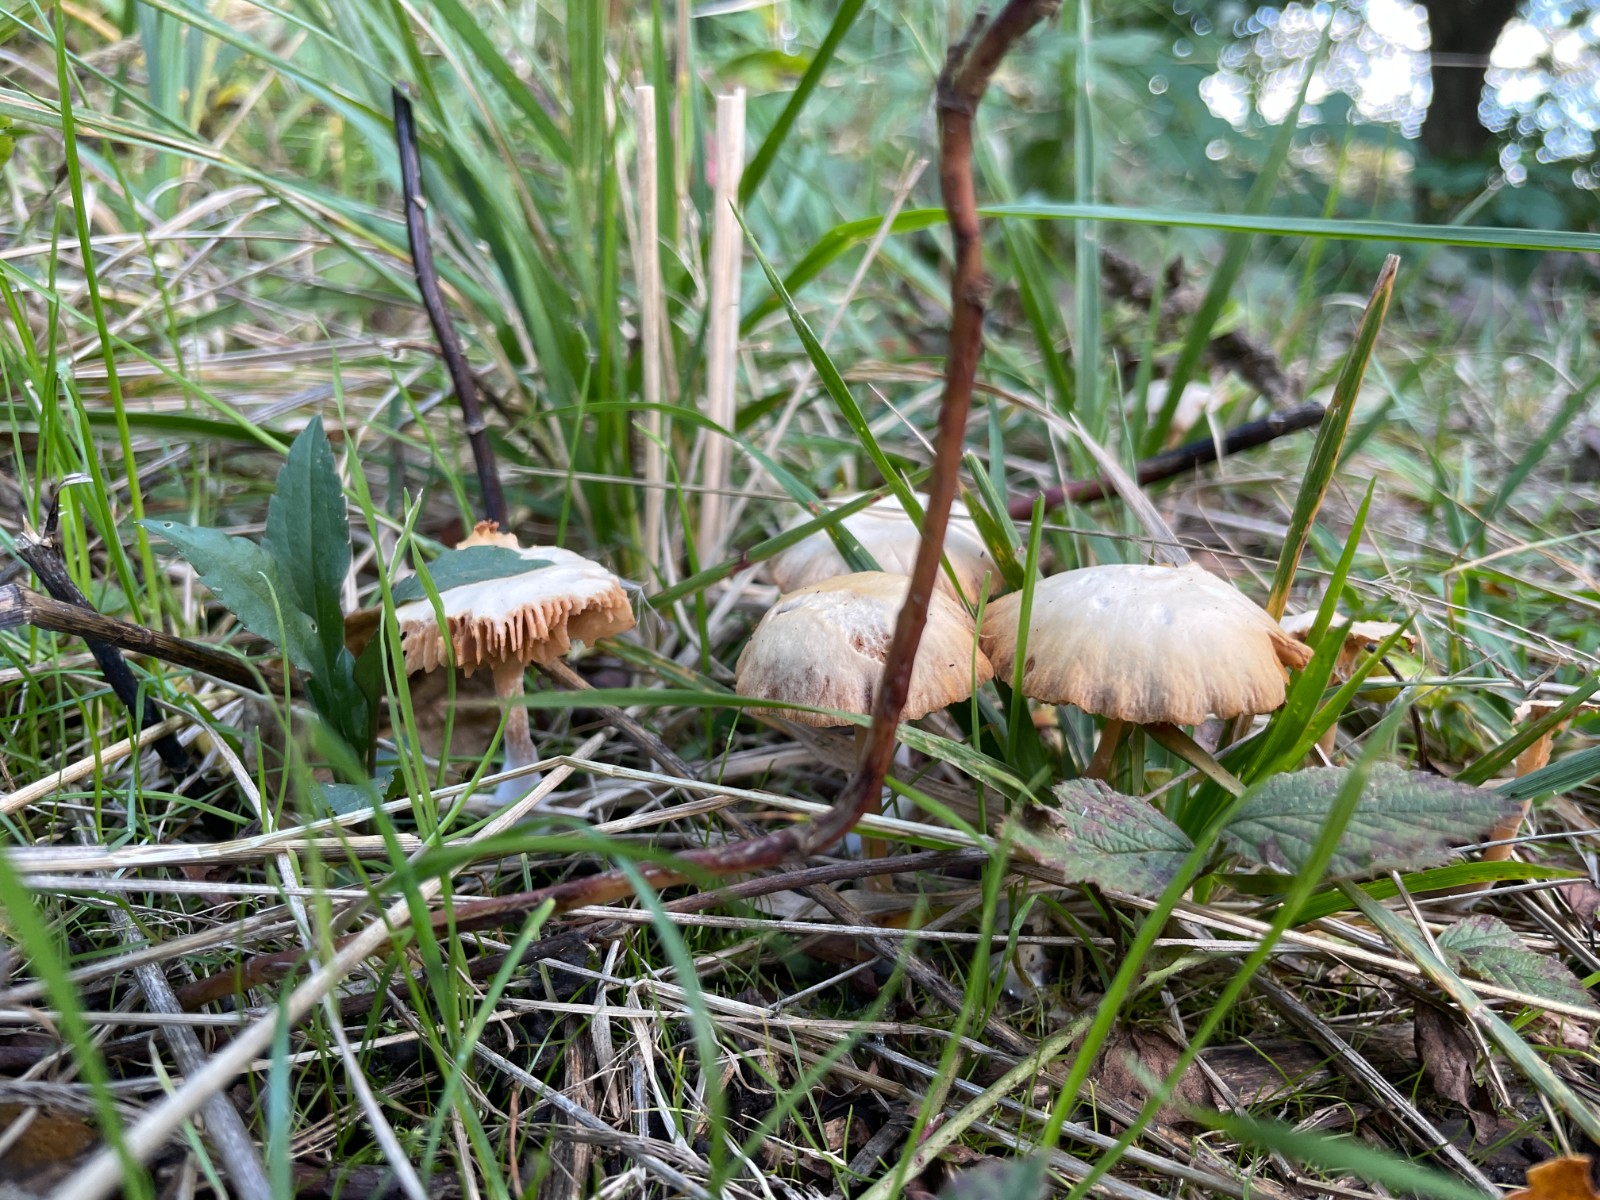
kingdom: Fungi
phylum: Basidiomycota
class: Agaricomycetes
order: Agaricales
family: Tubariaceae
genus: Tubaria
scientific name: Tubaria furfuracea
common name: kliddet fnughat
